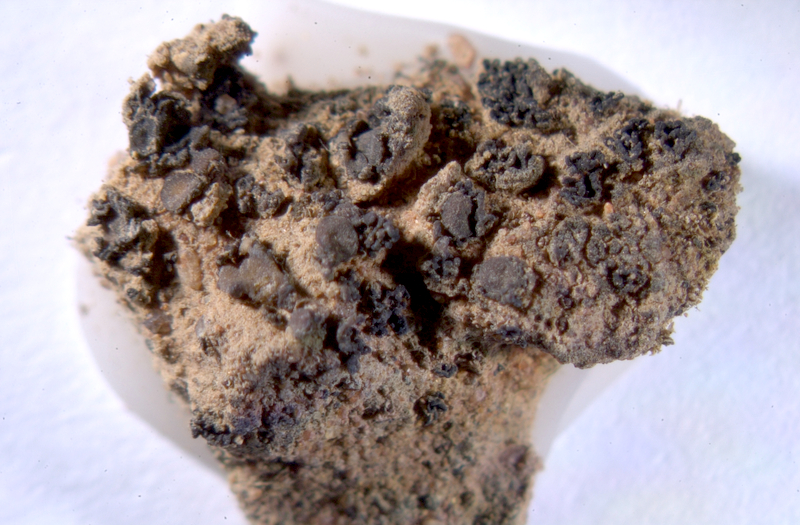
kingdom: Fungi
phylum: Ascomycota
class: Lecanoromycetes
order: Peltigerales
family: Collemataceae
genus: Enchylium
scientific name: Enchylium coccophorum
